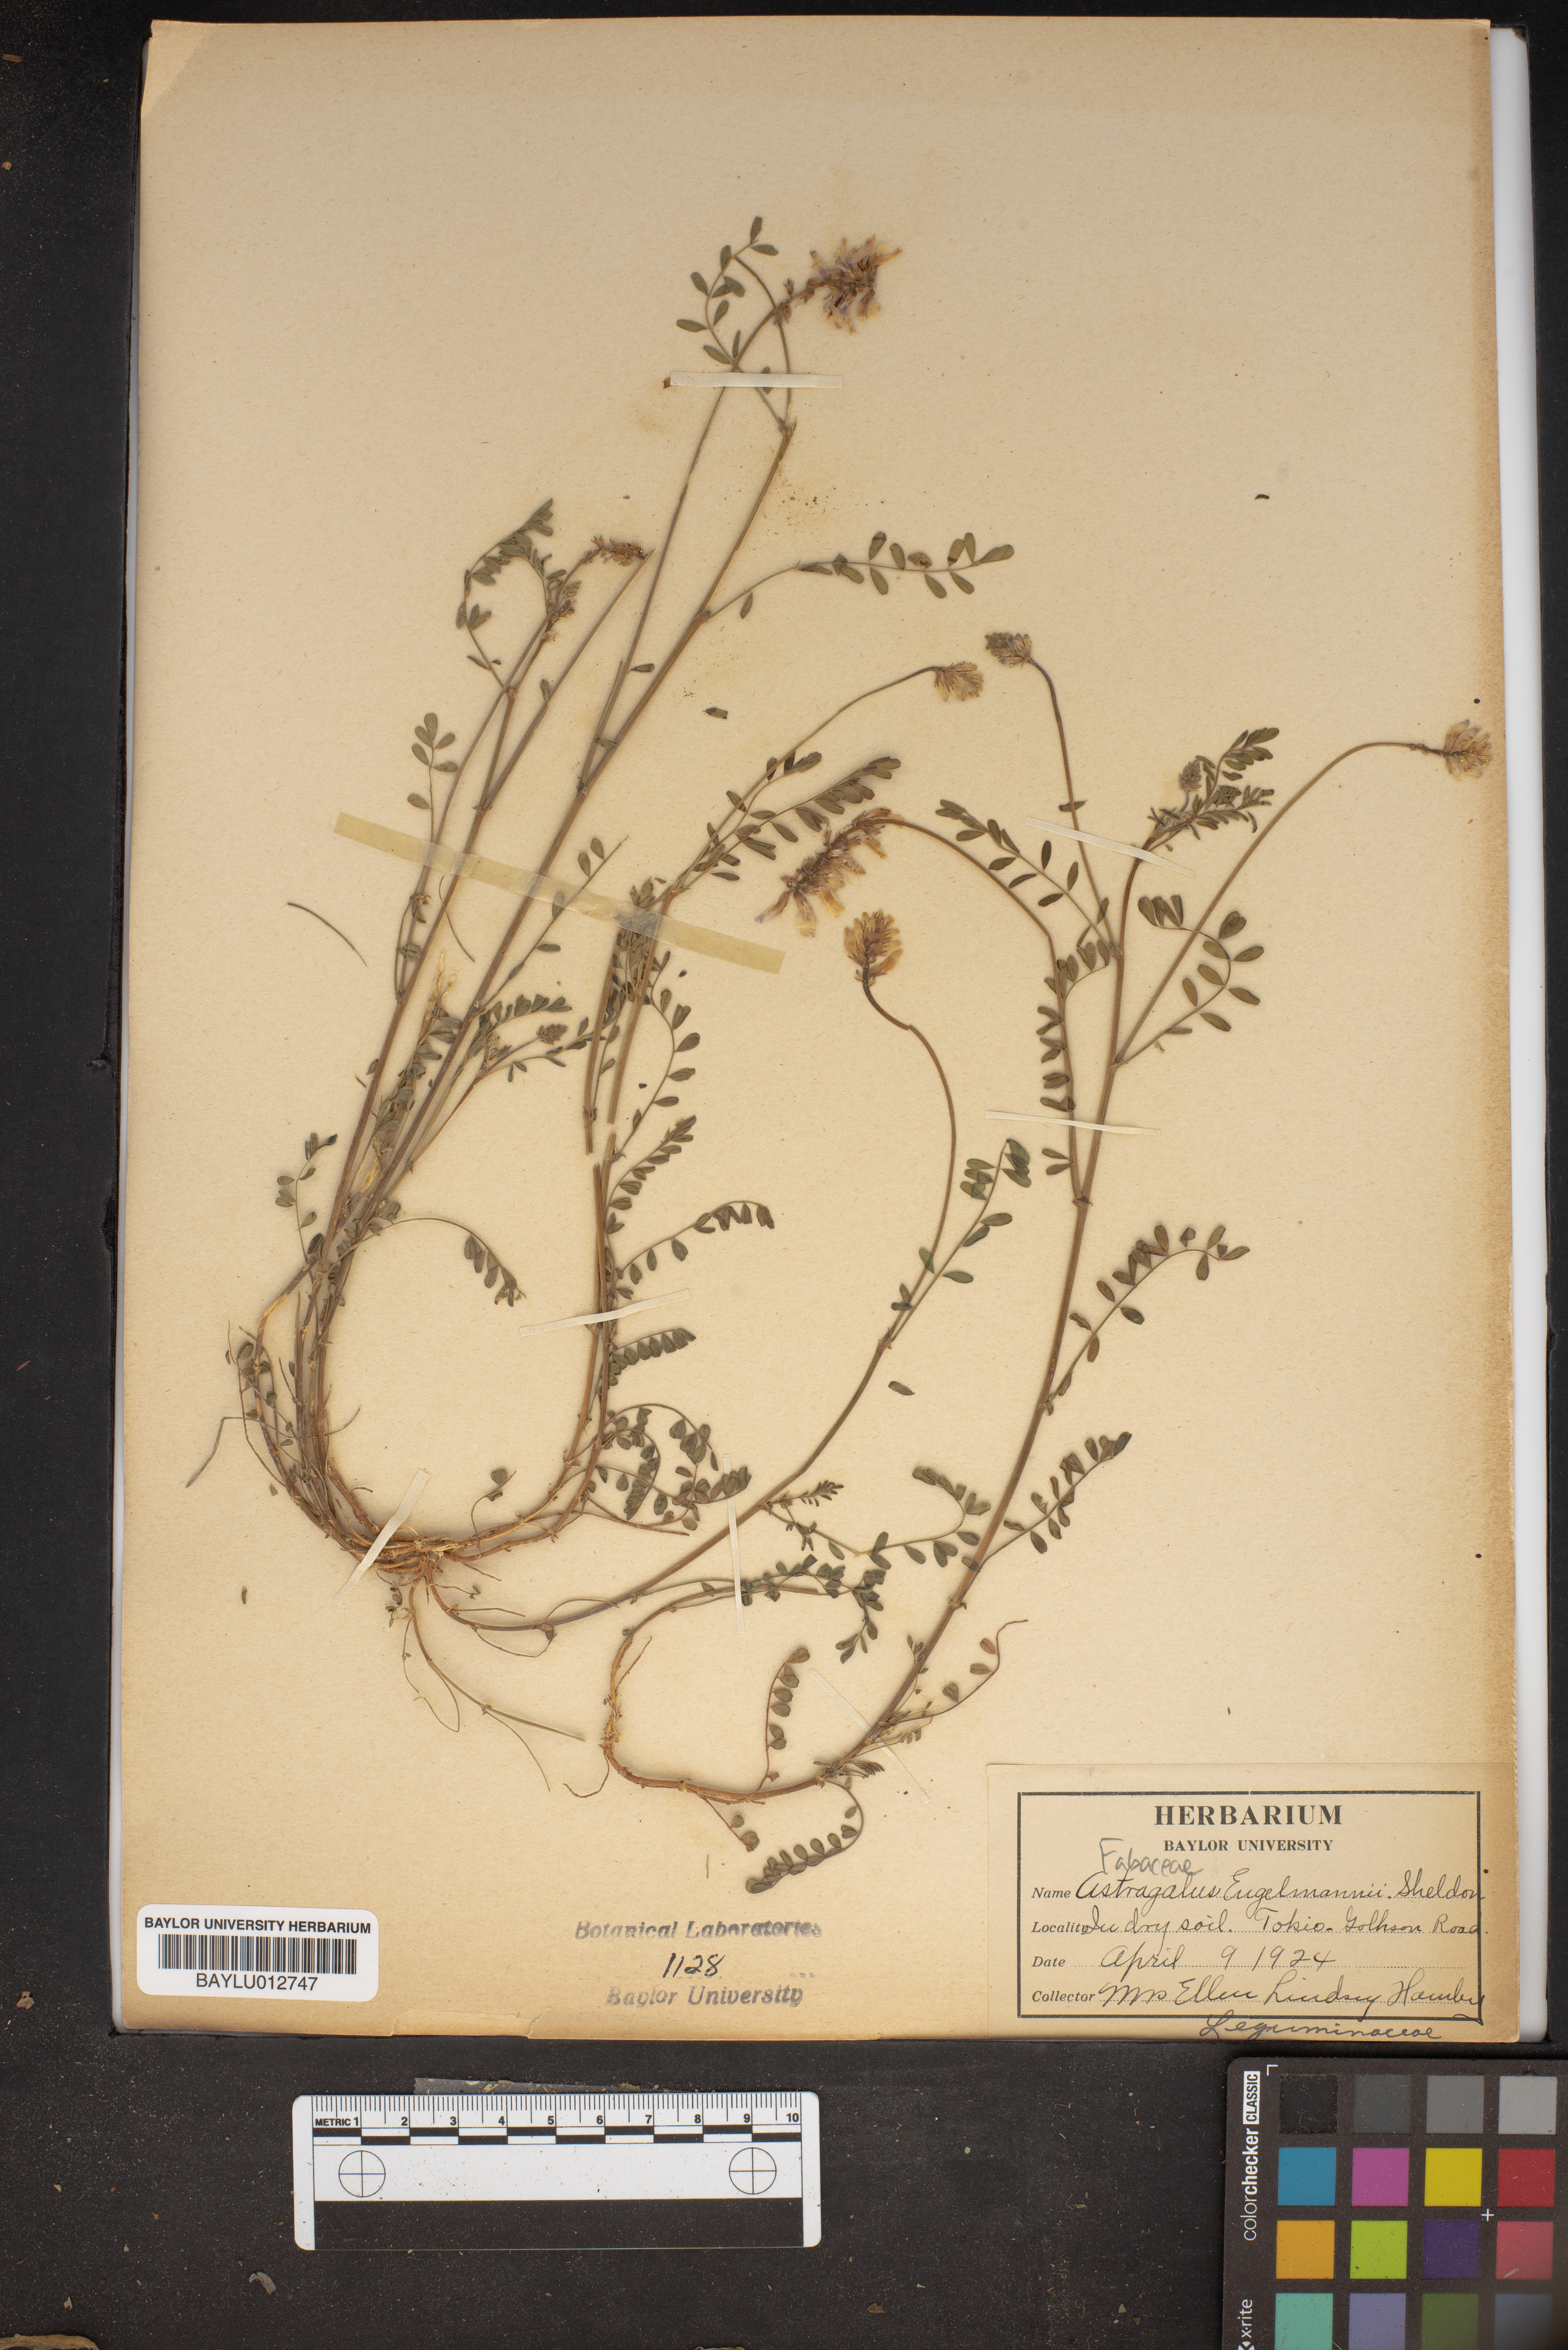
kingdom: Plantae
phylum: Tracheophyta
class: Magnoliopsida
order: Fabales
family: Fabaceae
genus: Astragalus
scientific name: Astragalus distortus
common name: Ozark milk-vetch
